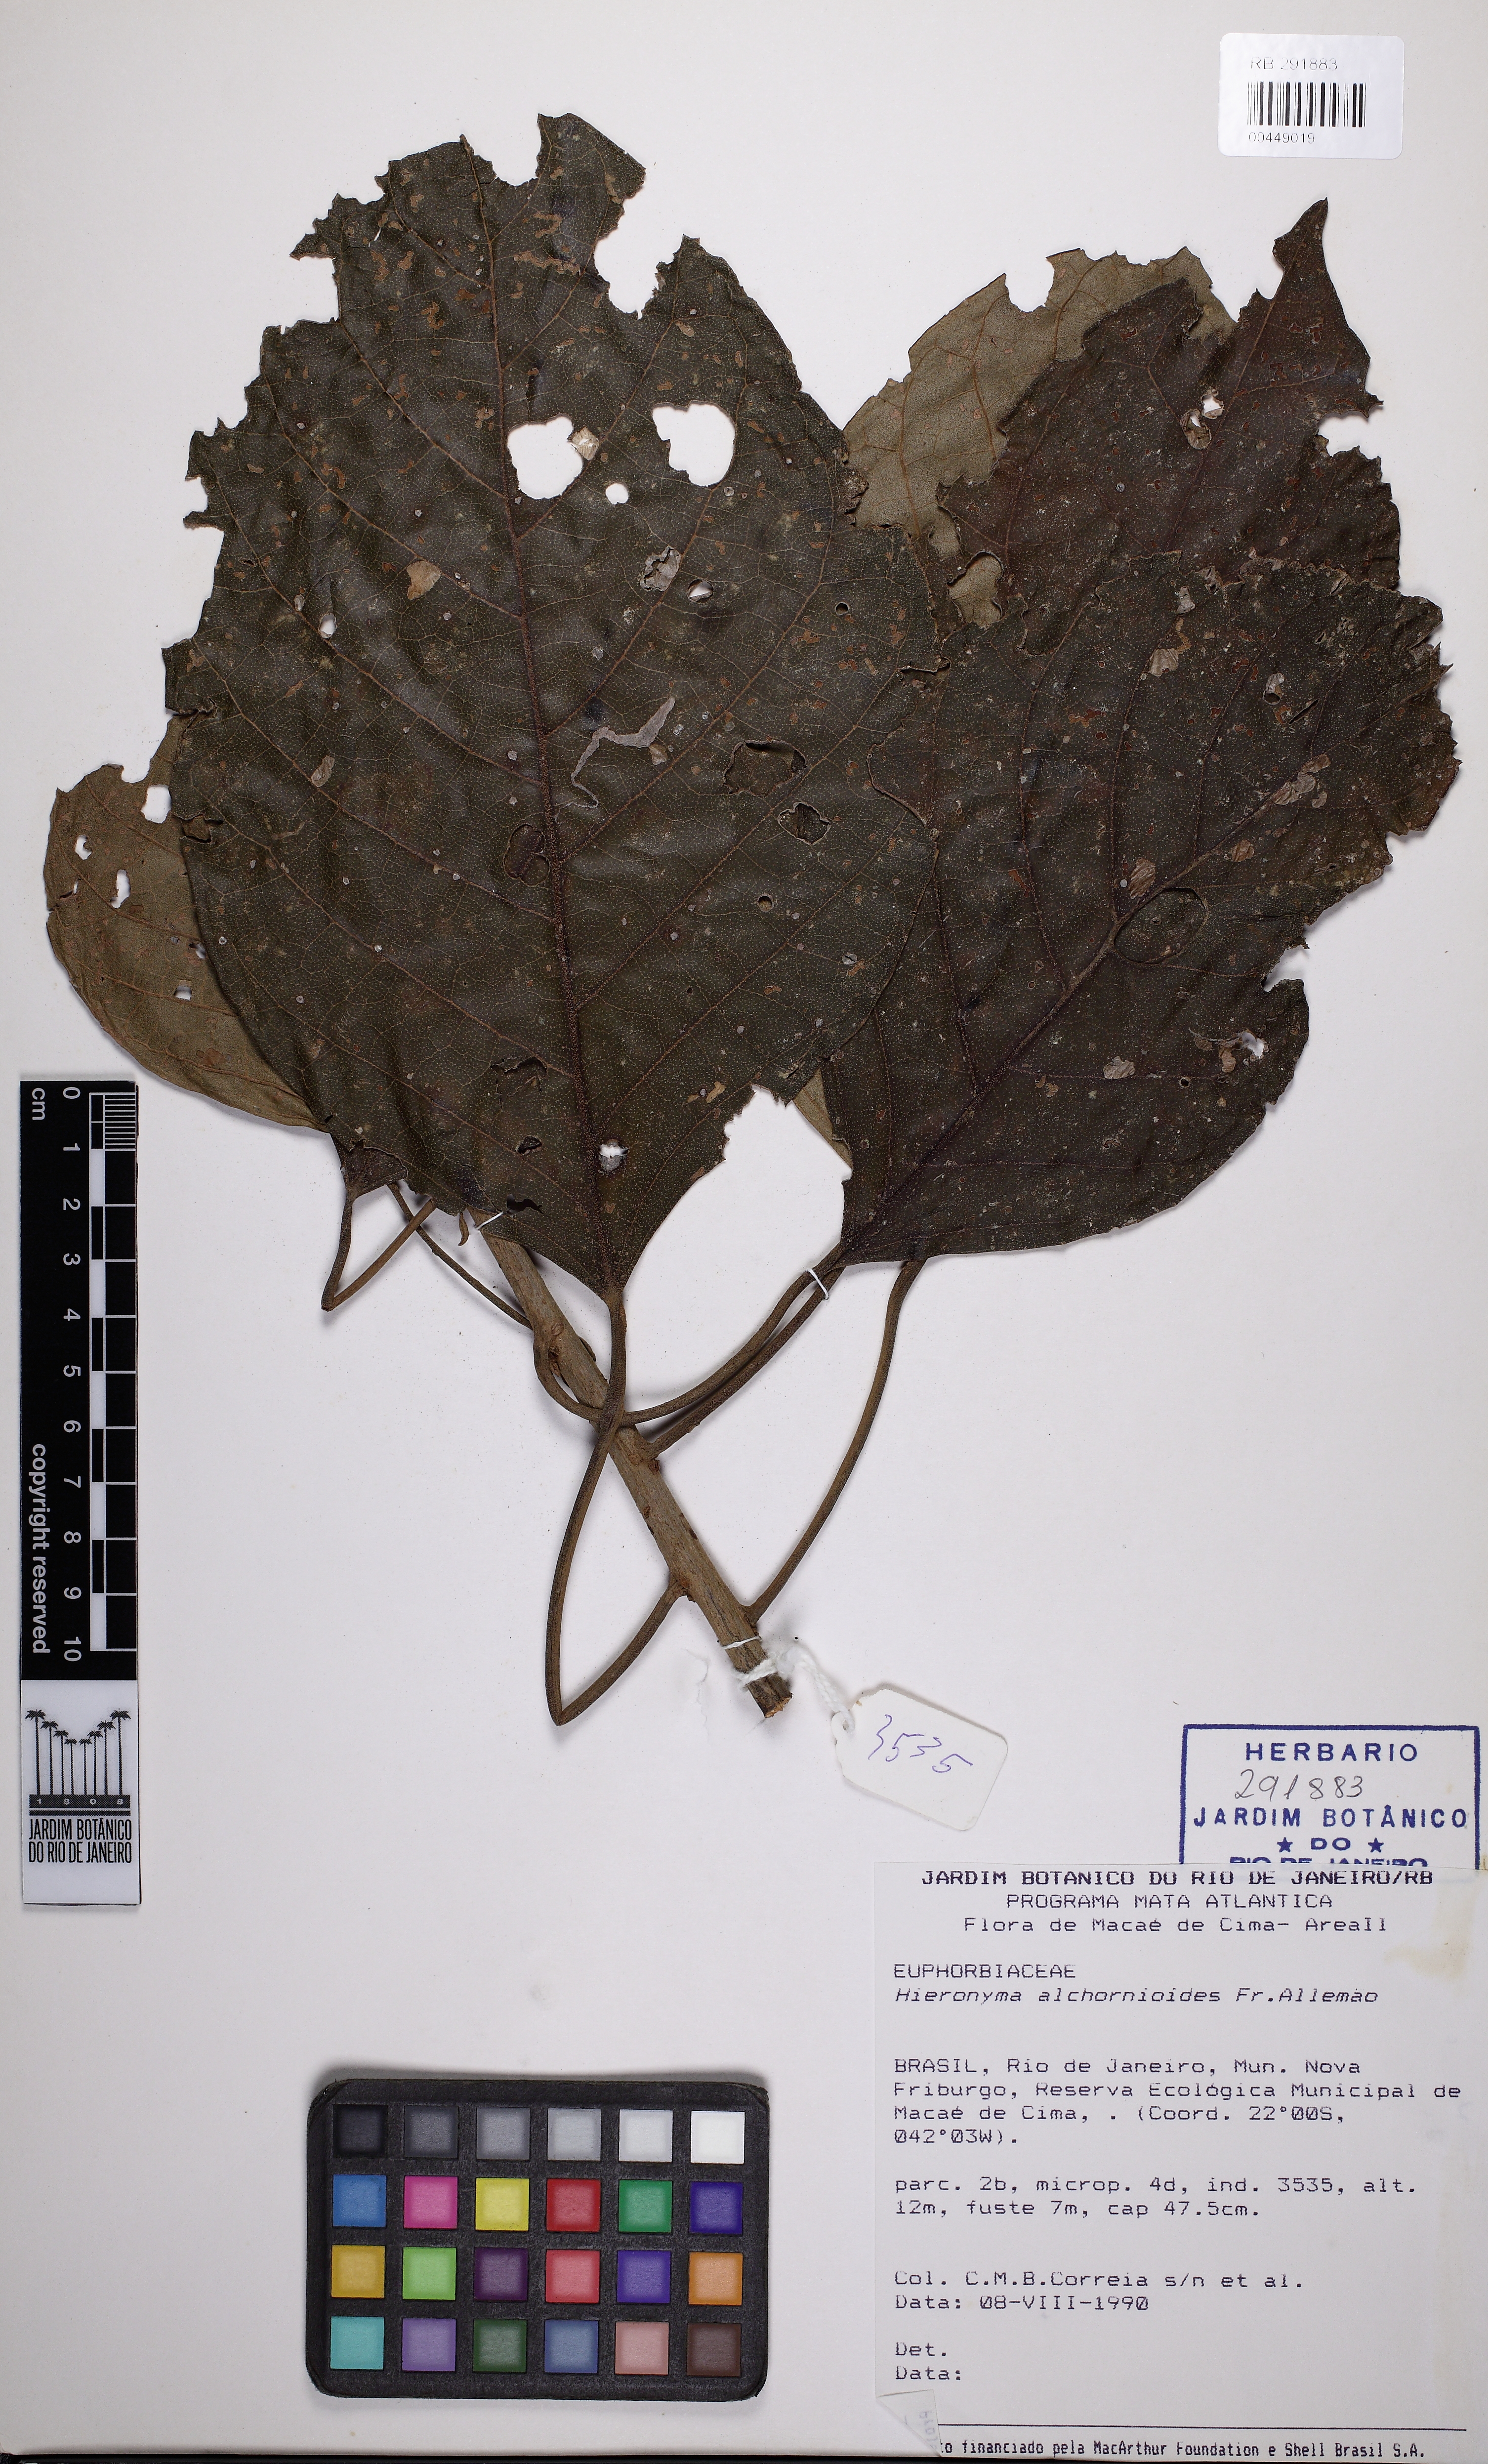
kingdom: Plantae
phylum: Tracheophyta
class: Magnoliopsida
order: Malpighiales
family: Phyllanthaceae
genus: Hieronyma
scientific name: Hieronyma alchorneoides
